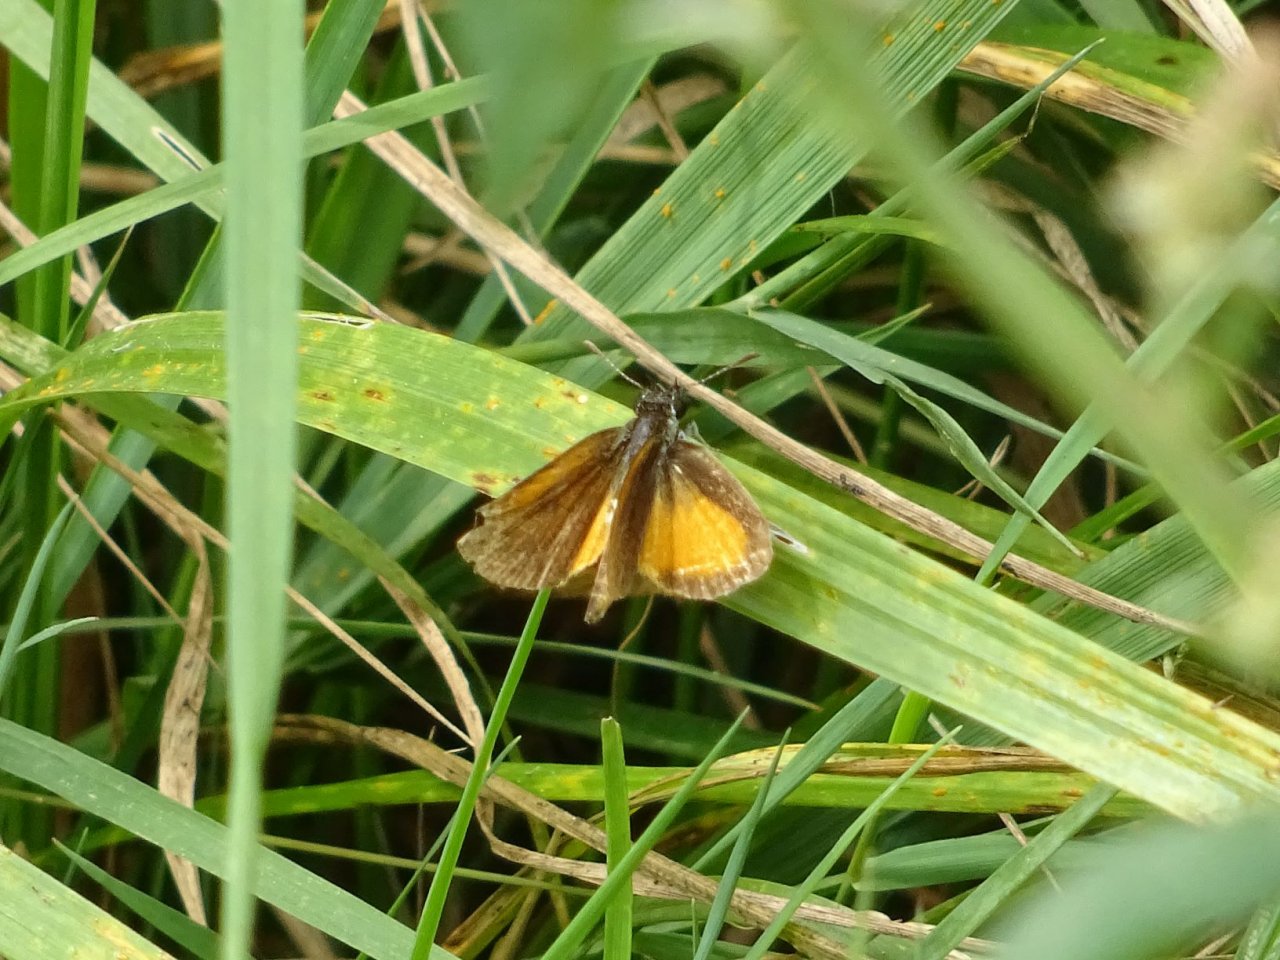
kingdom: Animalia
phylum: Arthropoda
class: Insecta
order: Lepidoptera
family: Hesperiidae
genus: Ancyloxypha
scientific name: Ancyloxypha numitor
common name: Least Skipper
